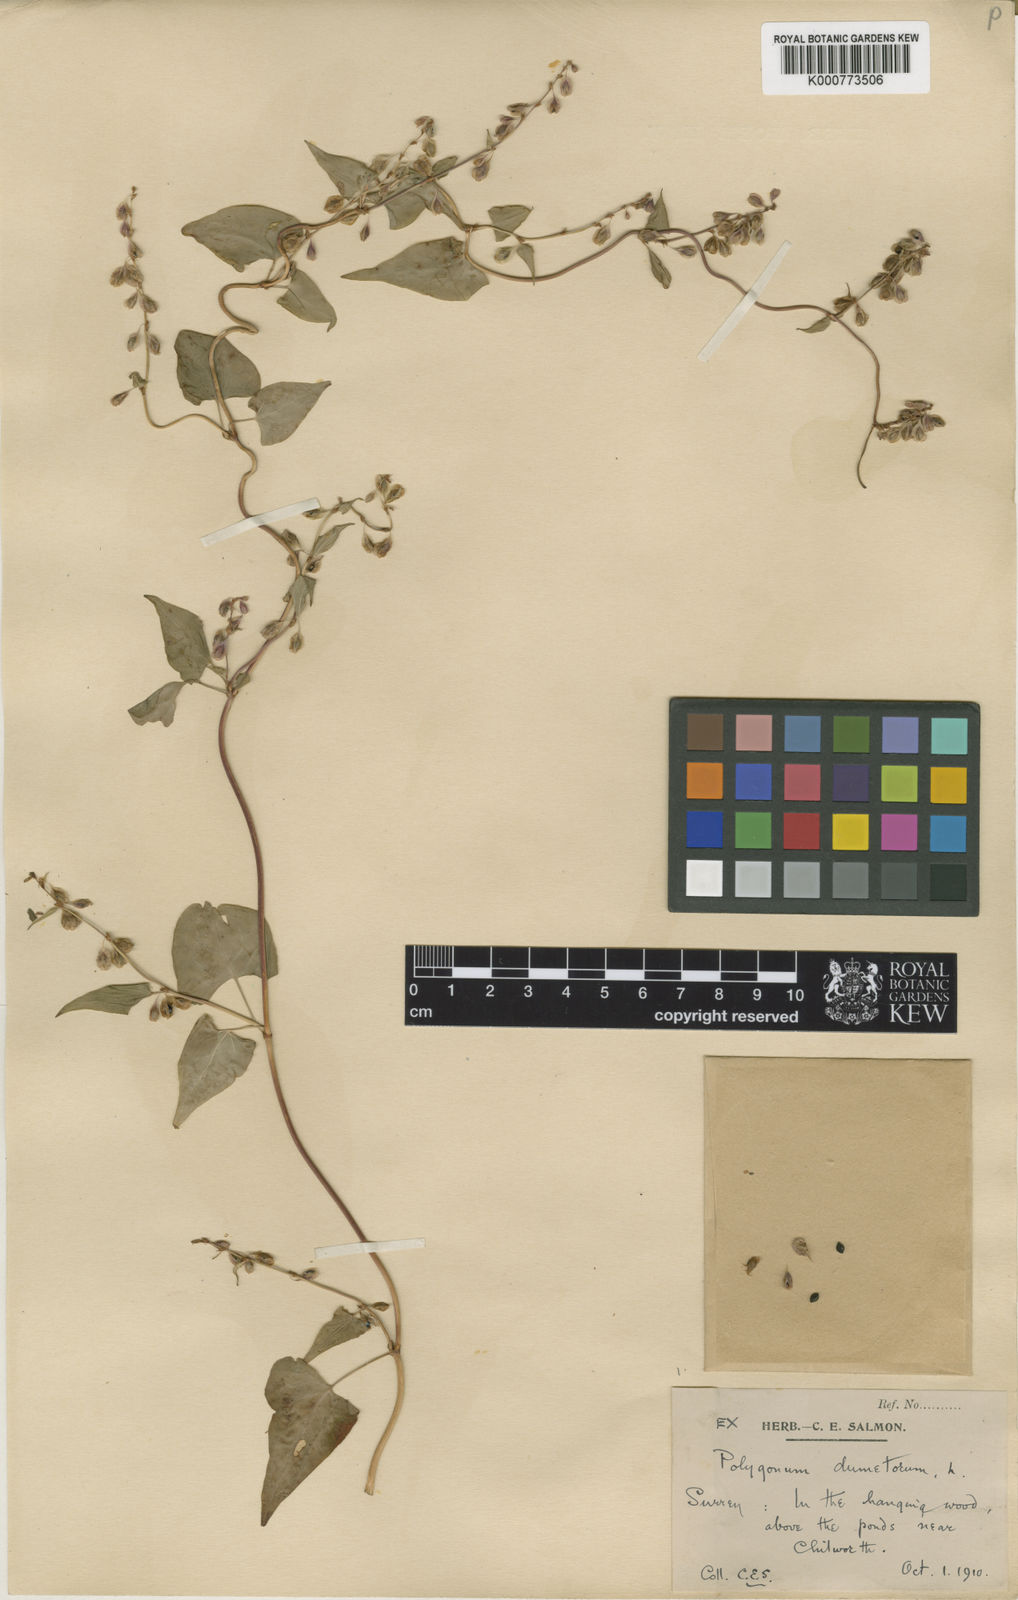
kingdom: Plantae
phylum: Tracheophyta
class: Magnoliopsida
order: Caryophyllales
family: Polygonaceae
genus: Fallopia
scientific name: Fallopia dumetorum
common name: Copse-bindweed
